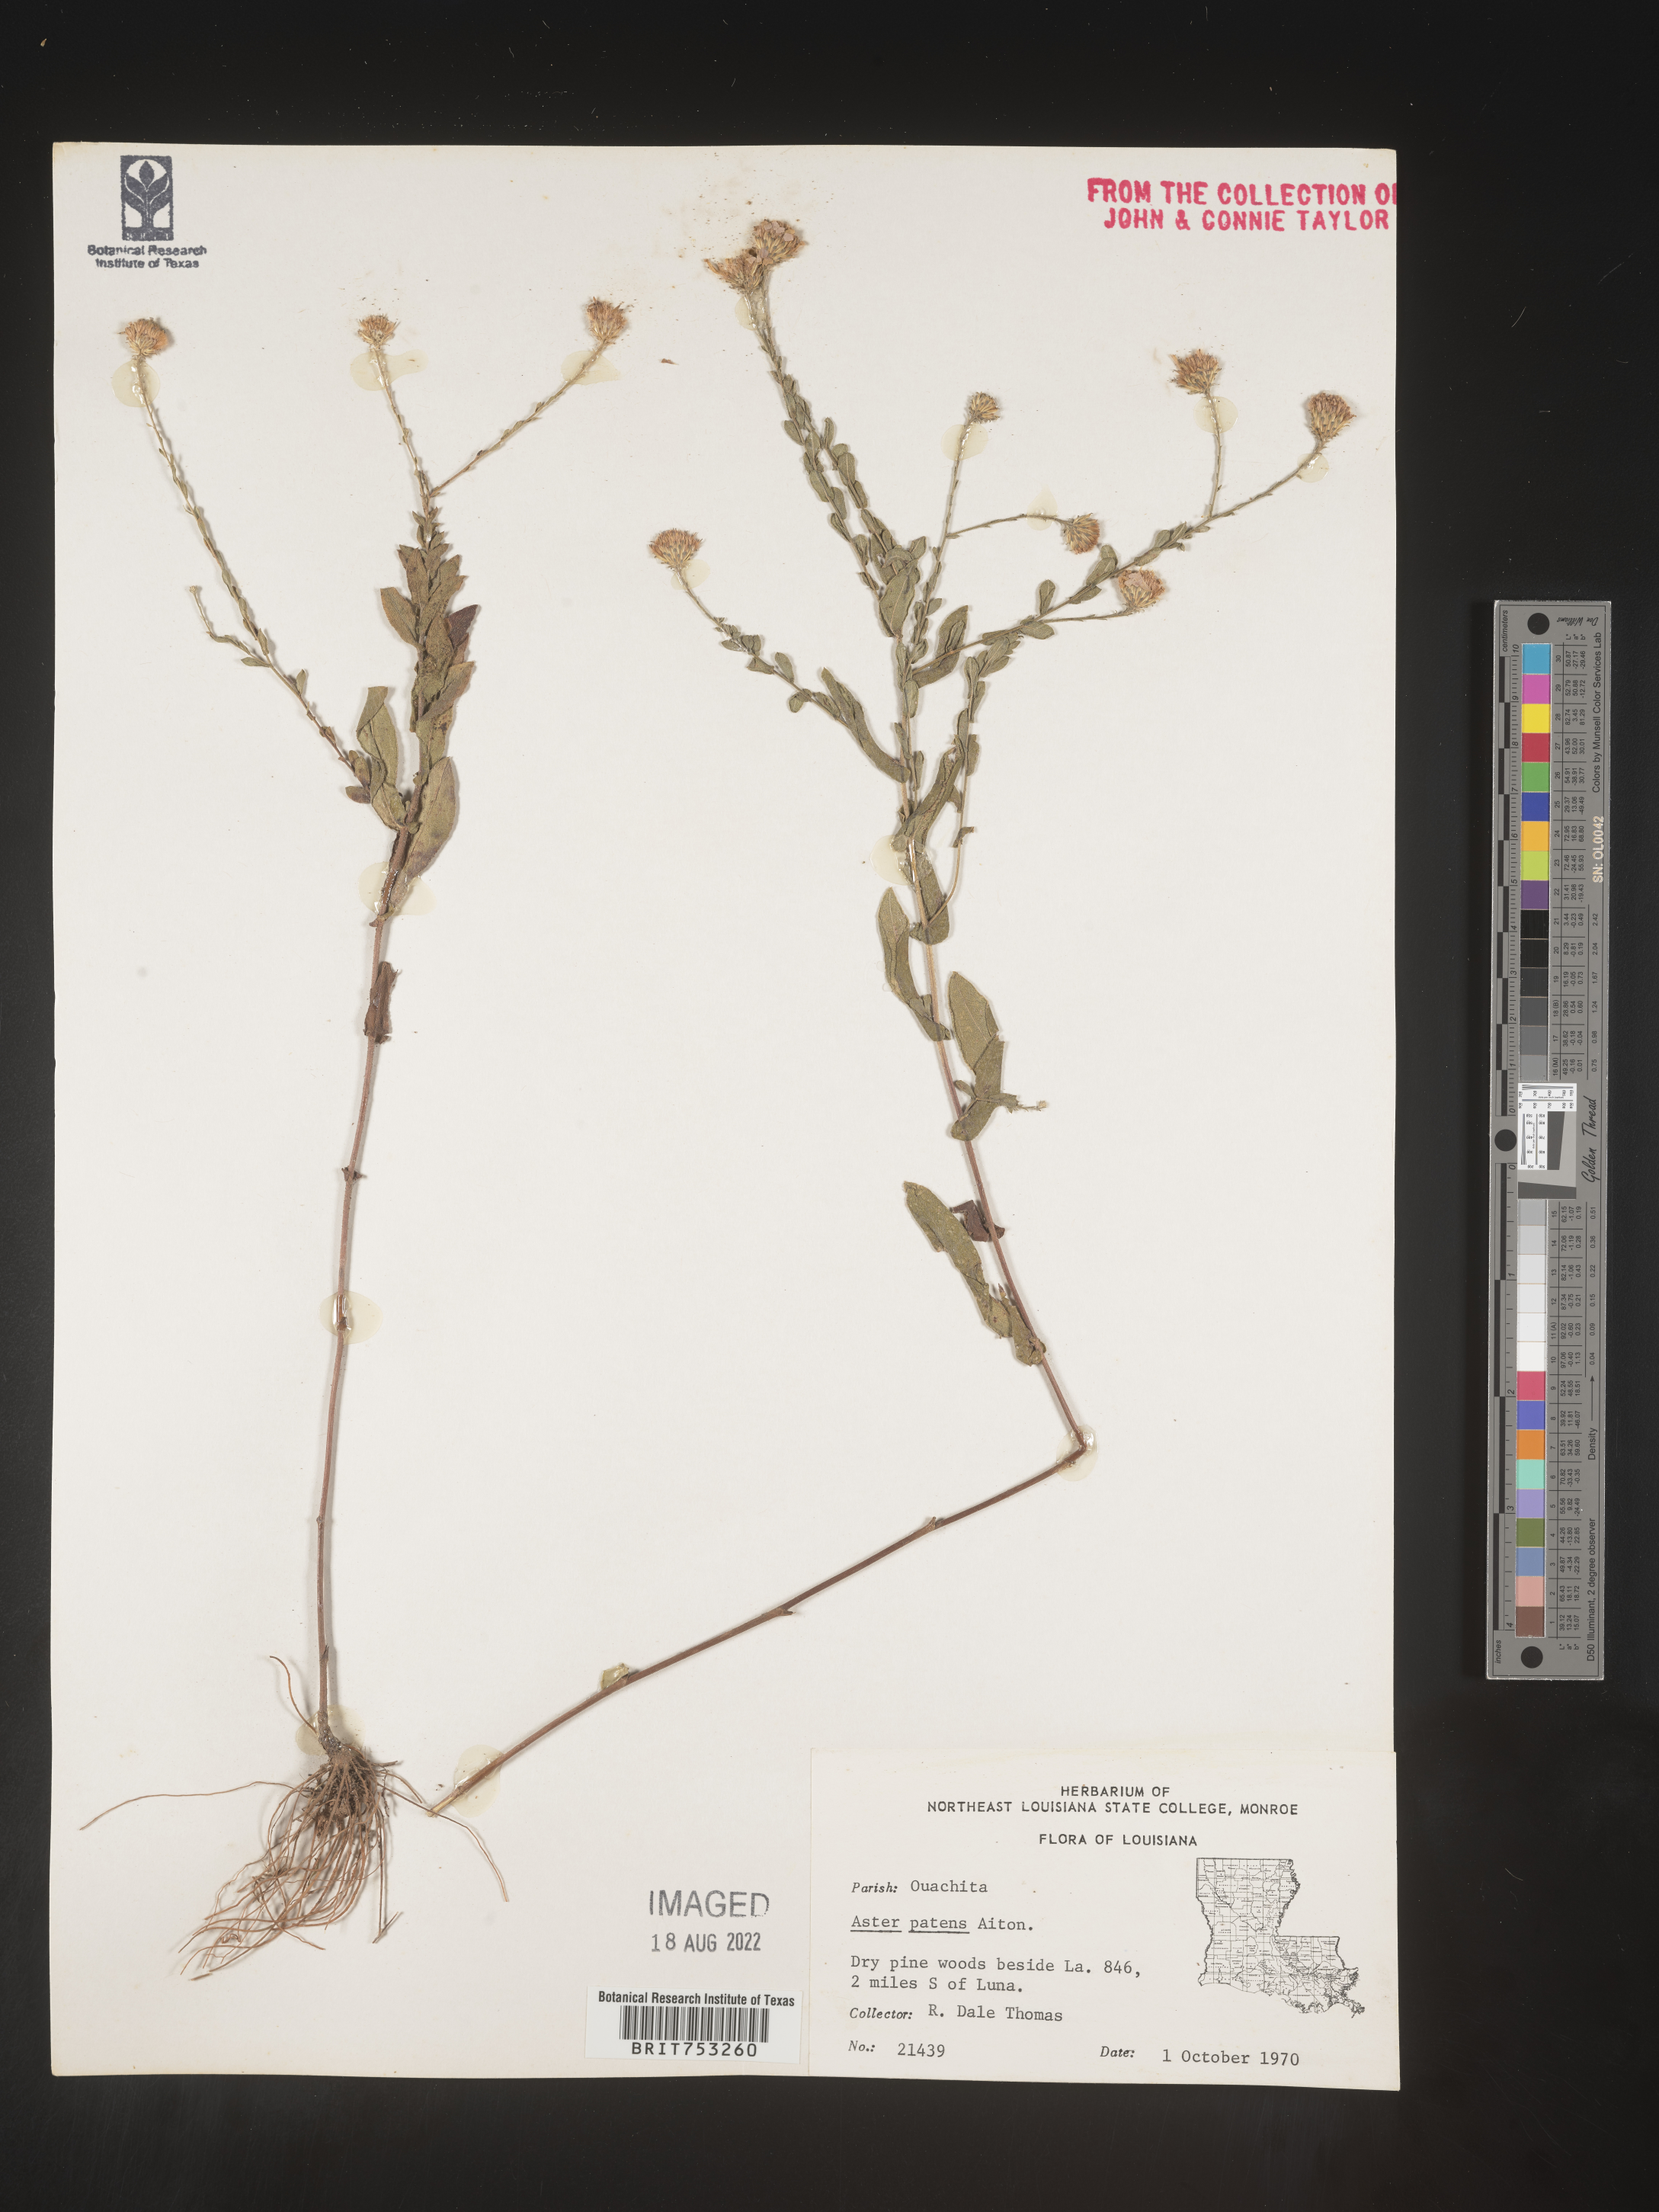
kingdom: Plantae
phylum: Tracheophyta
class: Magnoliopsida
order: Asterales
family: Asteraceae
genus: Symphyotrichum
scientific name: Symphyotrichum patens
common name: Late purple aster
